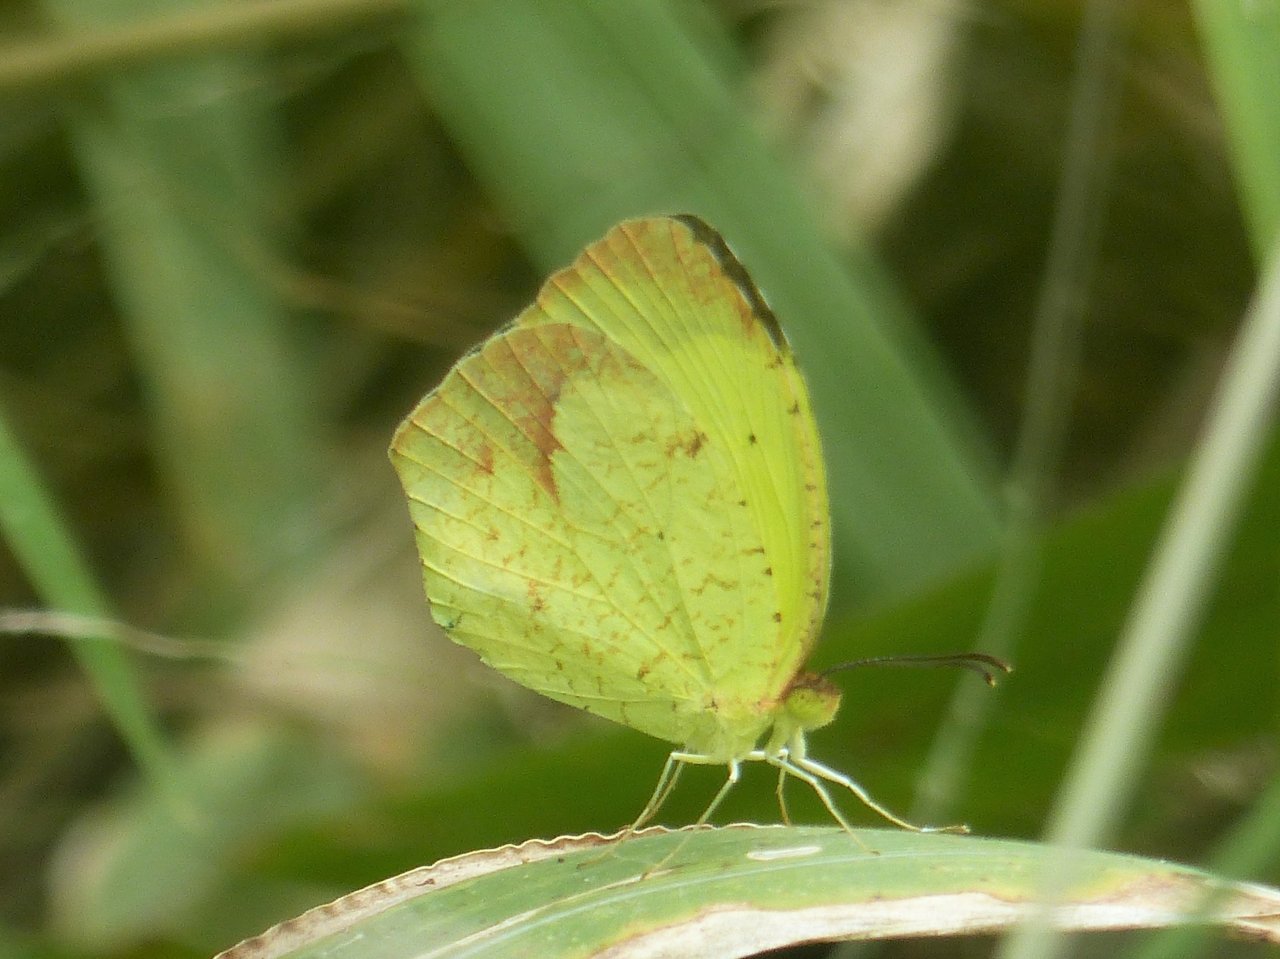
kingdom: Animalia
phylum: Arthropoda
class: Insecta
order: Lepidoptera
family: Pieridae
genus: Eurema
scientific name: Eurema boisduvaliana
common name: Boisduval's Yellow
